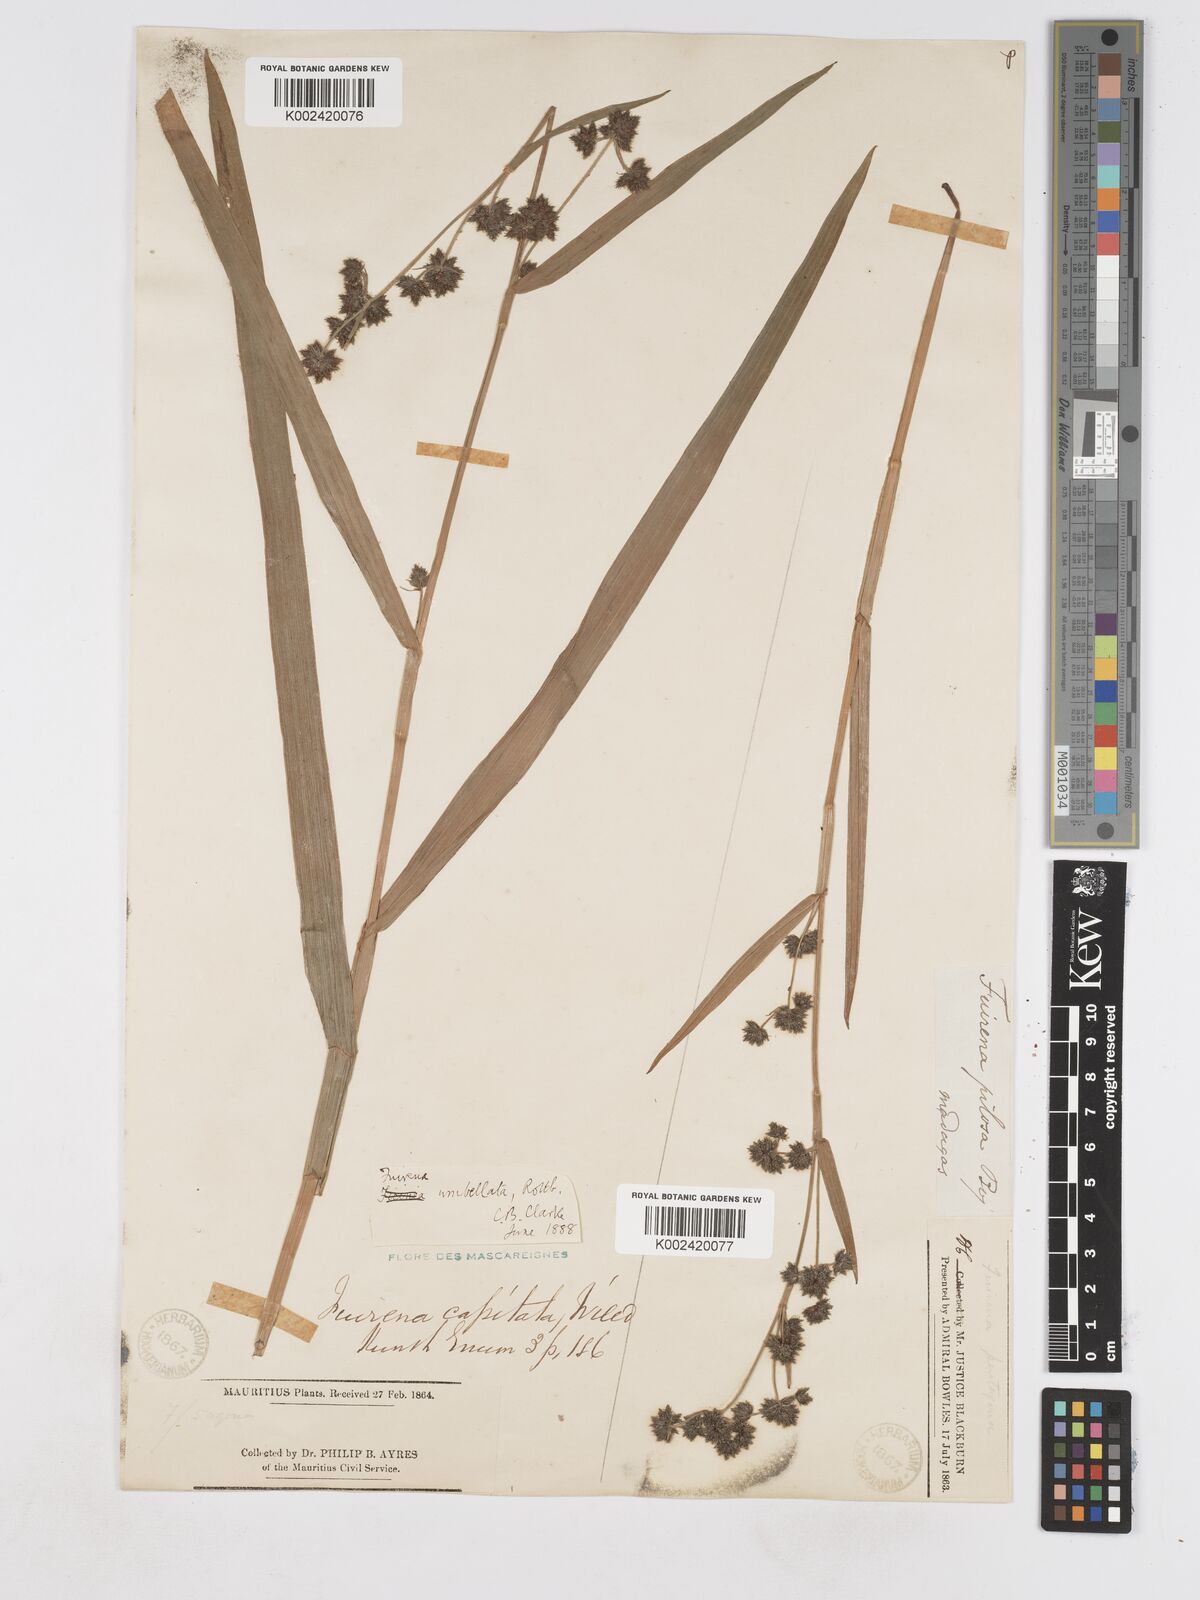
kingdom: Plantae
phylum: Tracheophyta
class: Liliopsida
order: Poales
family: Cyperaceae
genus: Fuirena
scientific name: Fuirena umbellata
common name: Yefen
